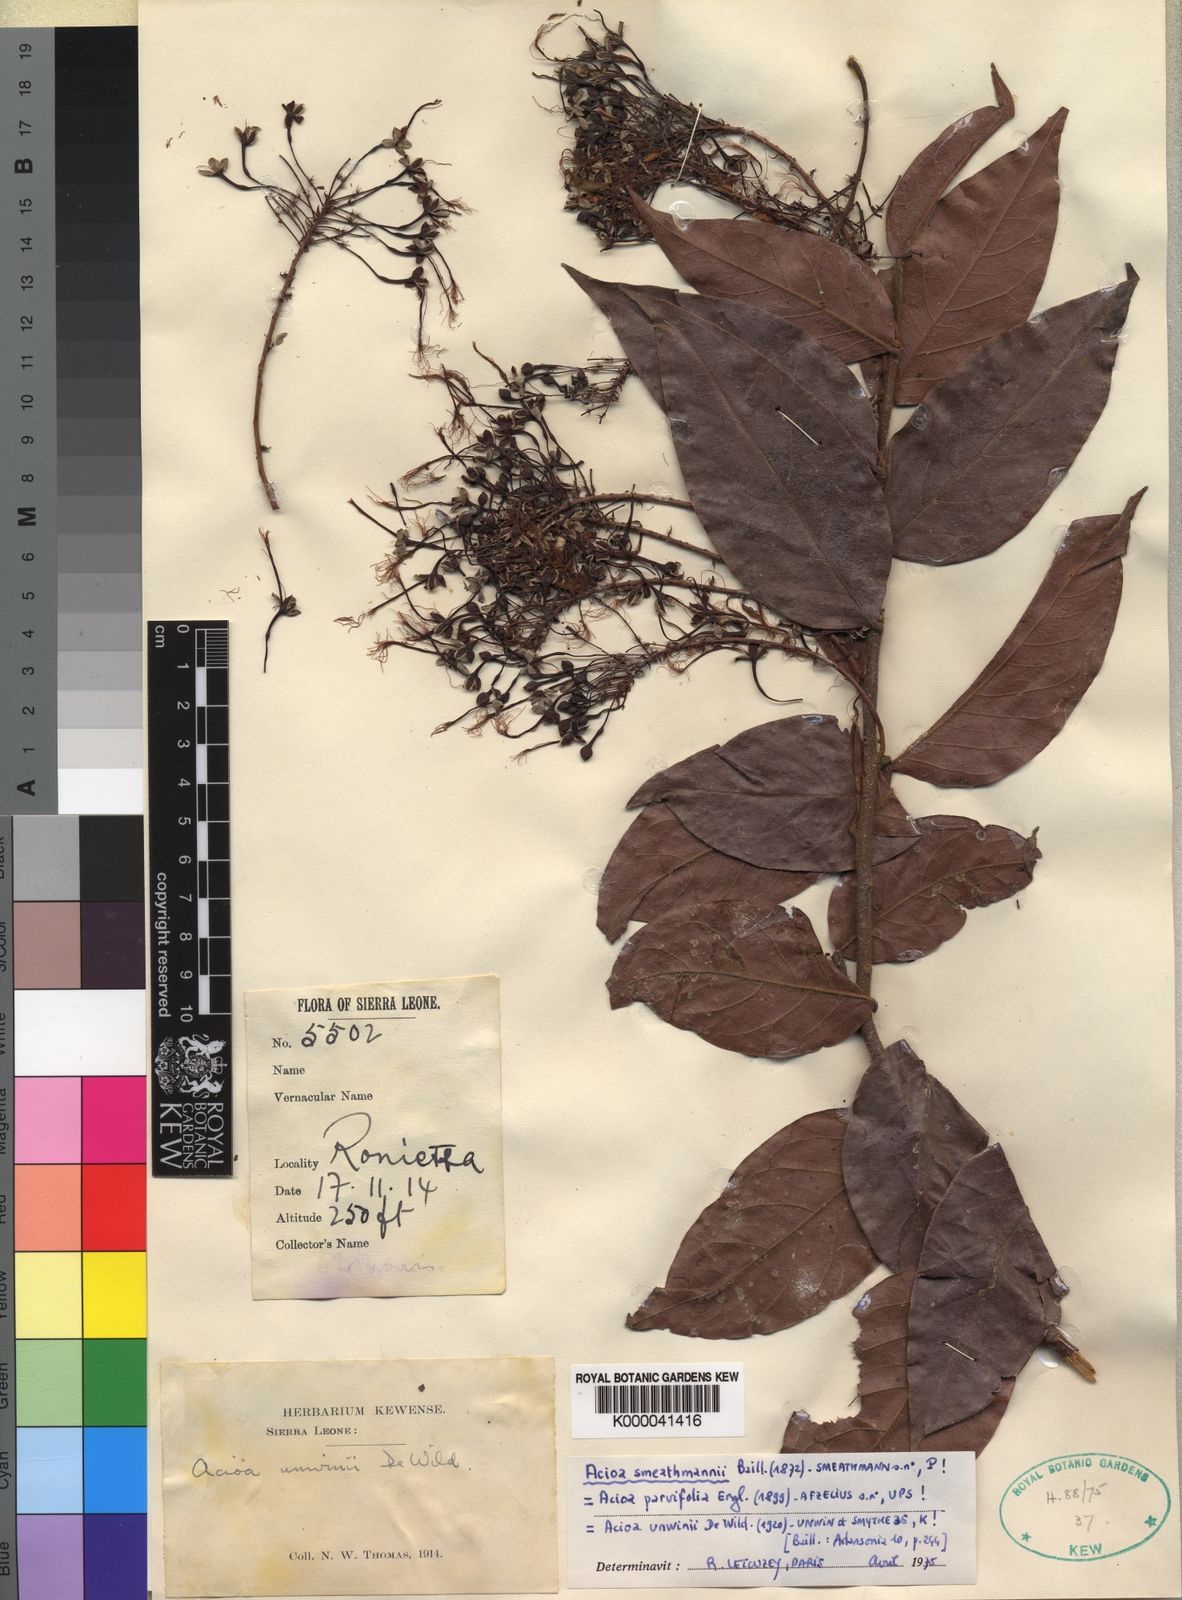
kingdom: Plantae
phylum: Tracheophyta
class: Magnoliopsida
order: Malpighiales
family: Chrysobalanaceae
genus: Dactyladenia
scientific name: Dactyladenia smeathmannii
